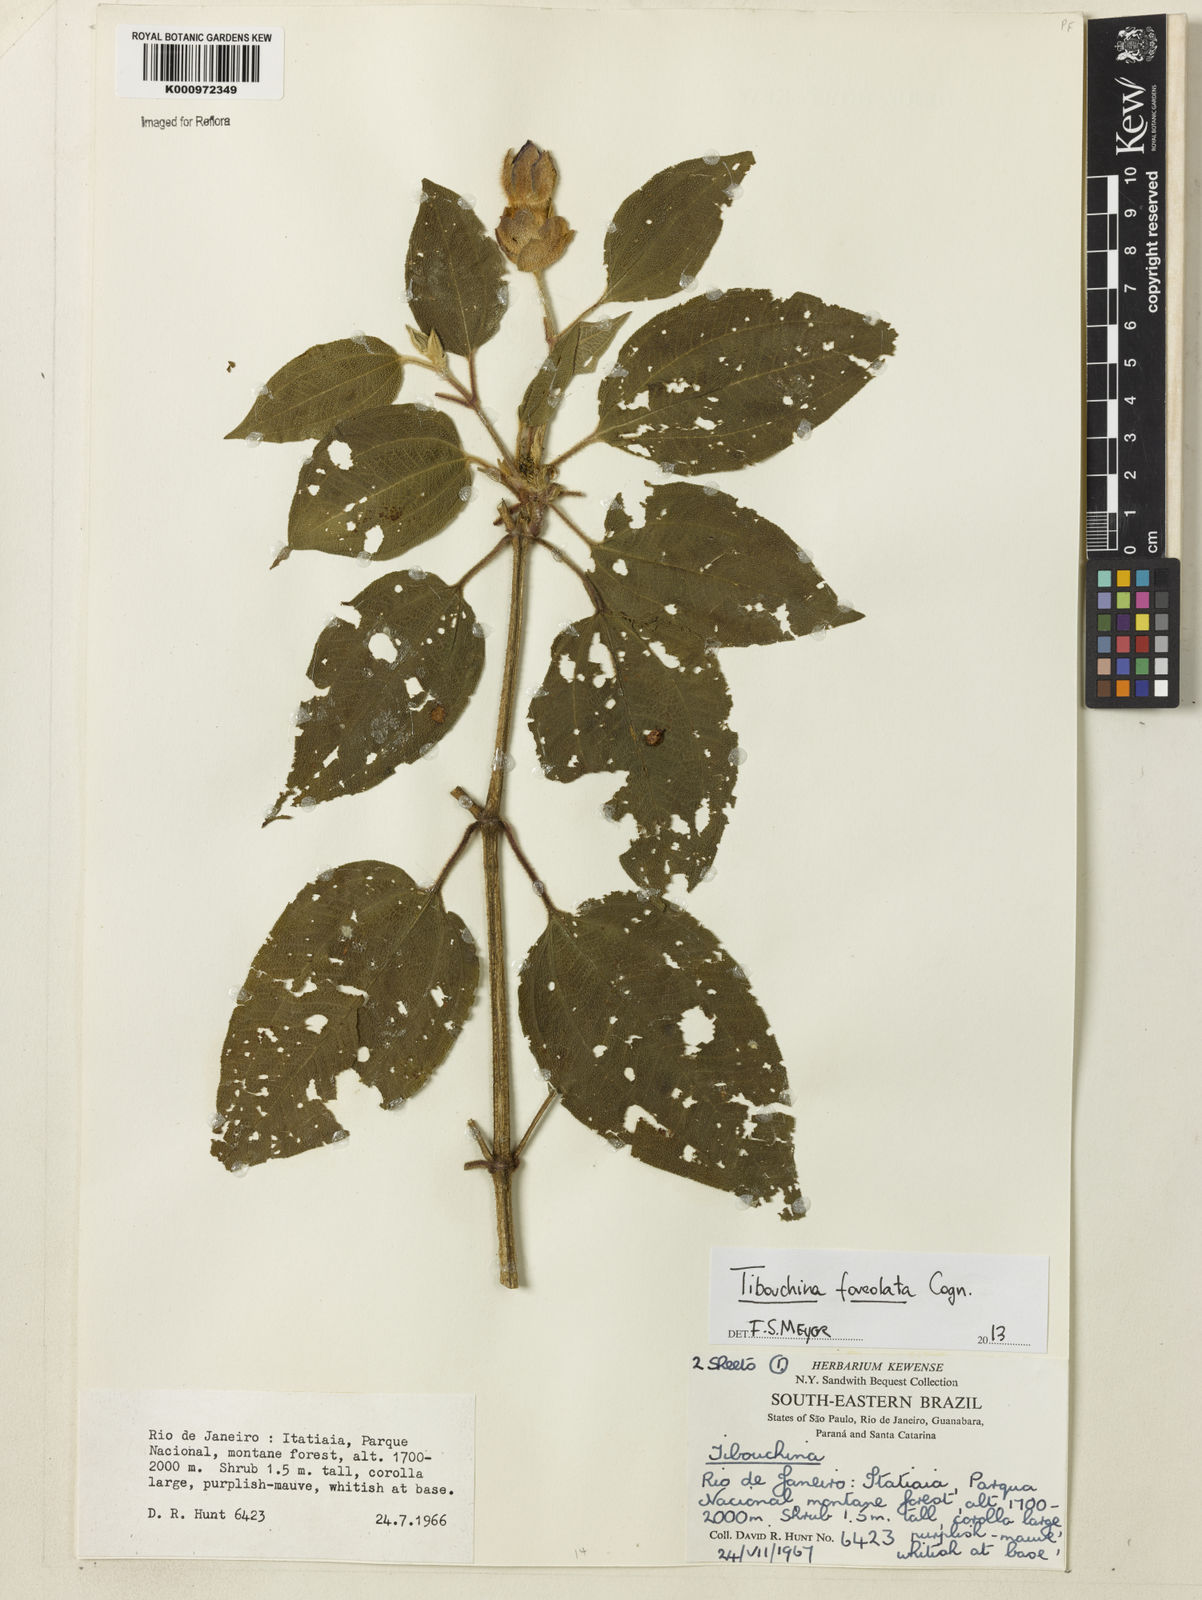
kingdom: Plantae
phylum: Tracheophyta
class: Magnoliopsida
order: Myrtales
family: Melastomataceae
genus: Pleroma
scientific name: Pleroma foveolatum
